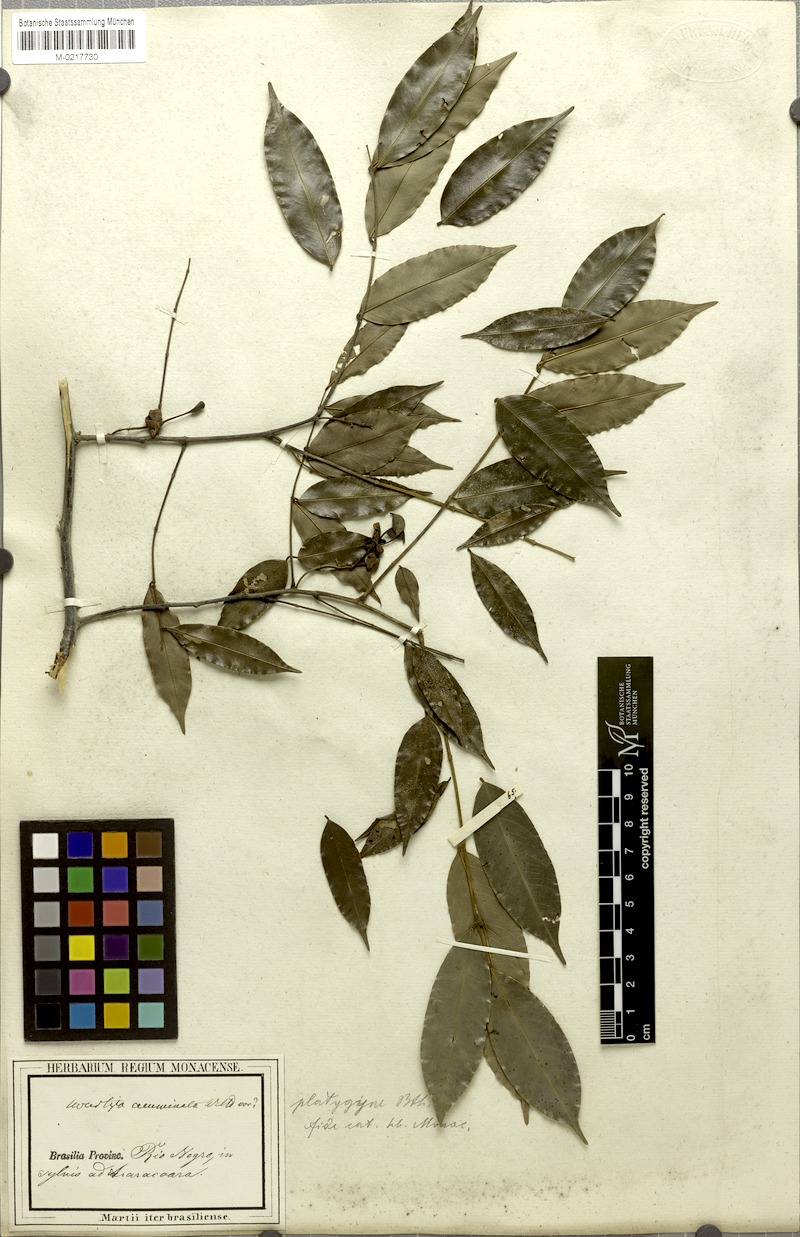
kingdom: Plantae
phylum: Tracheophyta
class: Magnoliopsida
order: Fabales
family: Fabaceae
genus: Swartzia
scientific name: Swartzia foliolosa
